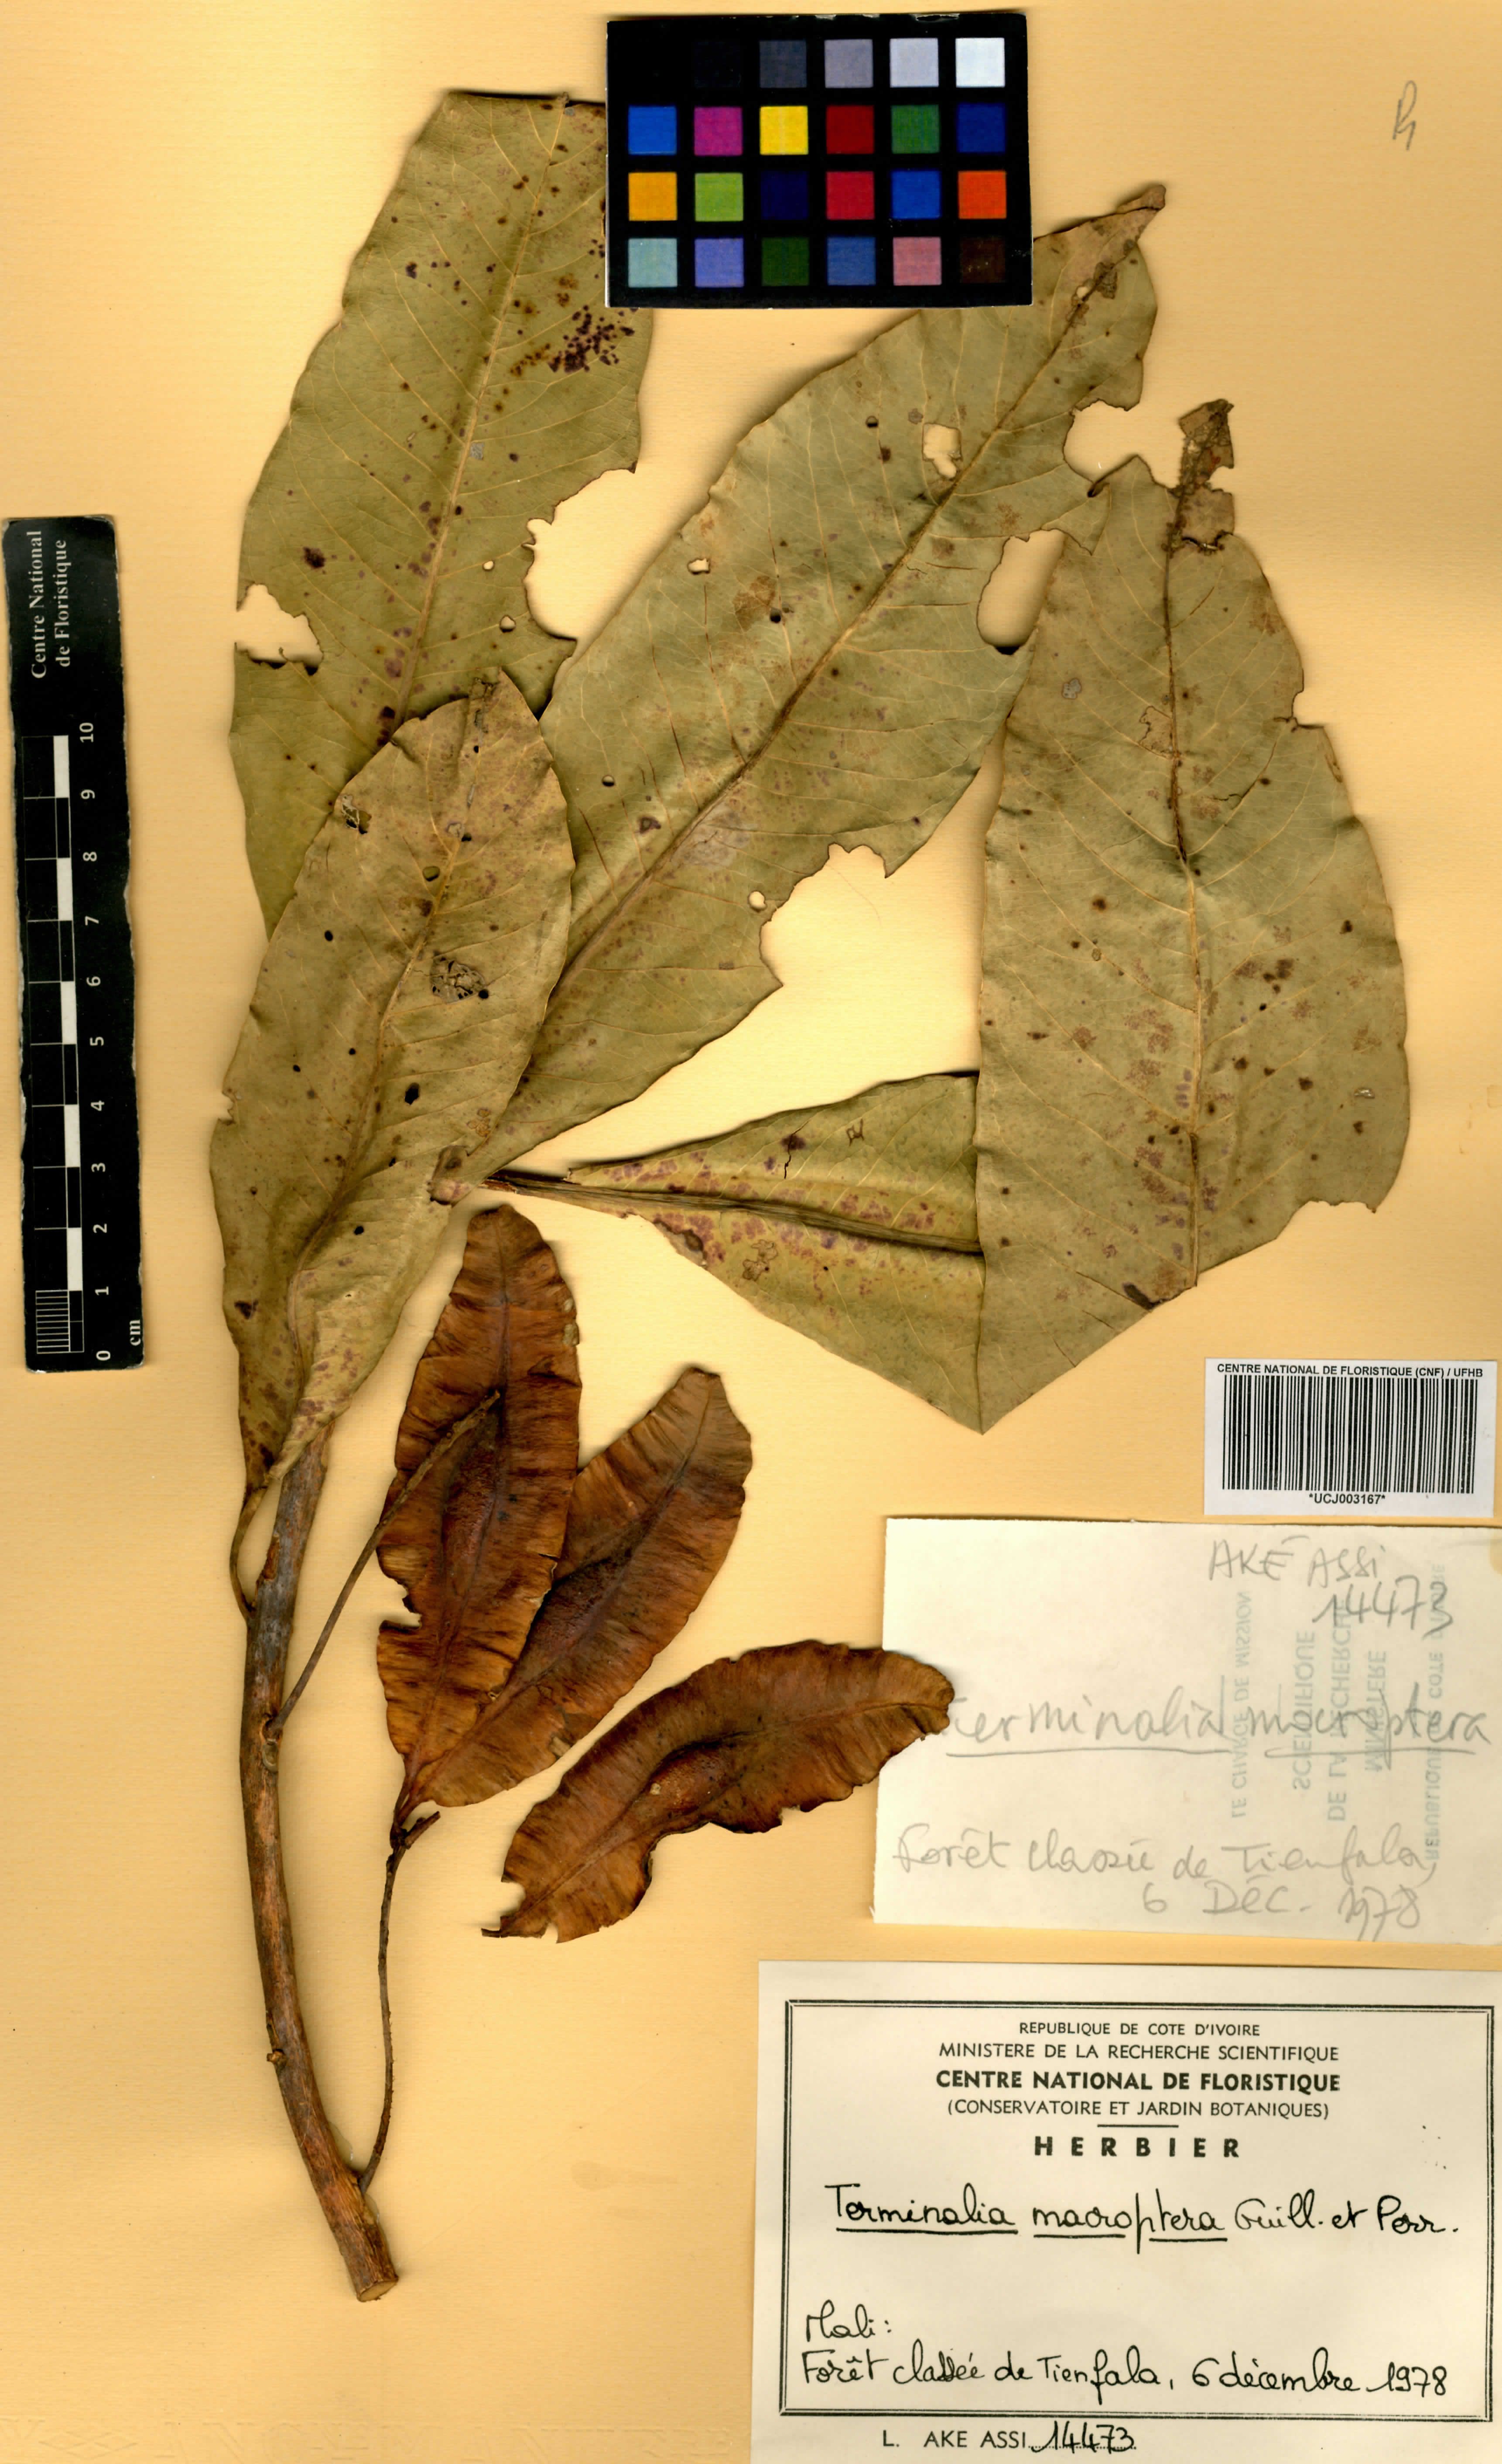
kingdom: Plantae
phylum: Tracheophyta
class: Magnoliopsida
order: Myrtales
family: Combretaceae
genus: Terminalia
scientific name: Terminalia macroptera
